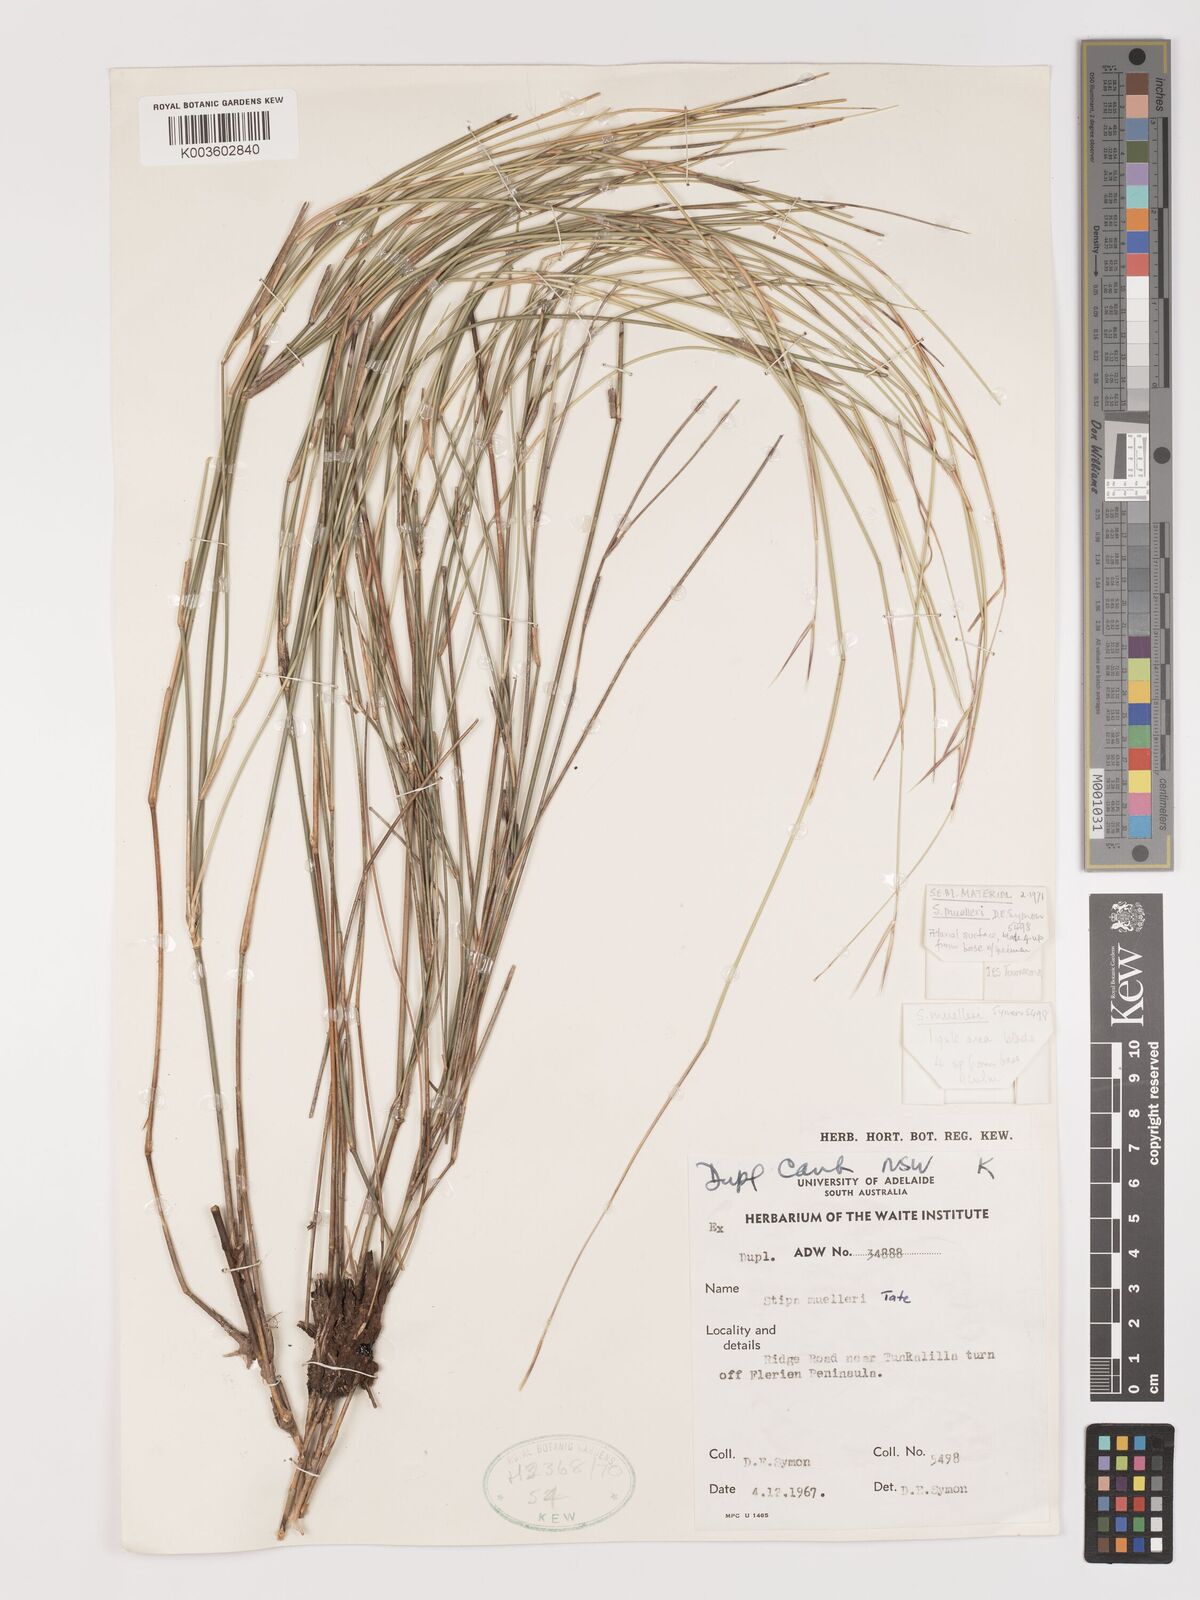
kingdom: Plantae
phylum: Tracheophyta
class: Liliopsida
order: Poales
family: Poaceae
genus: Austrostipa
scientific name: Austrostipa muelleri
